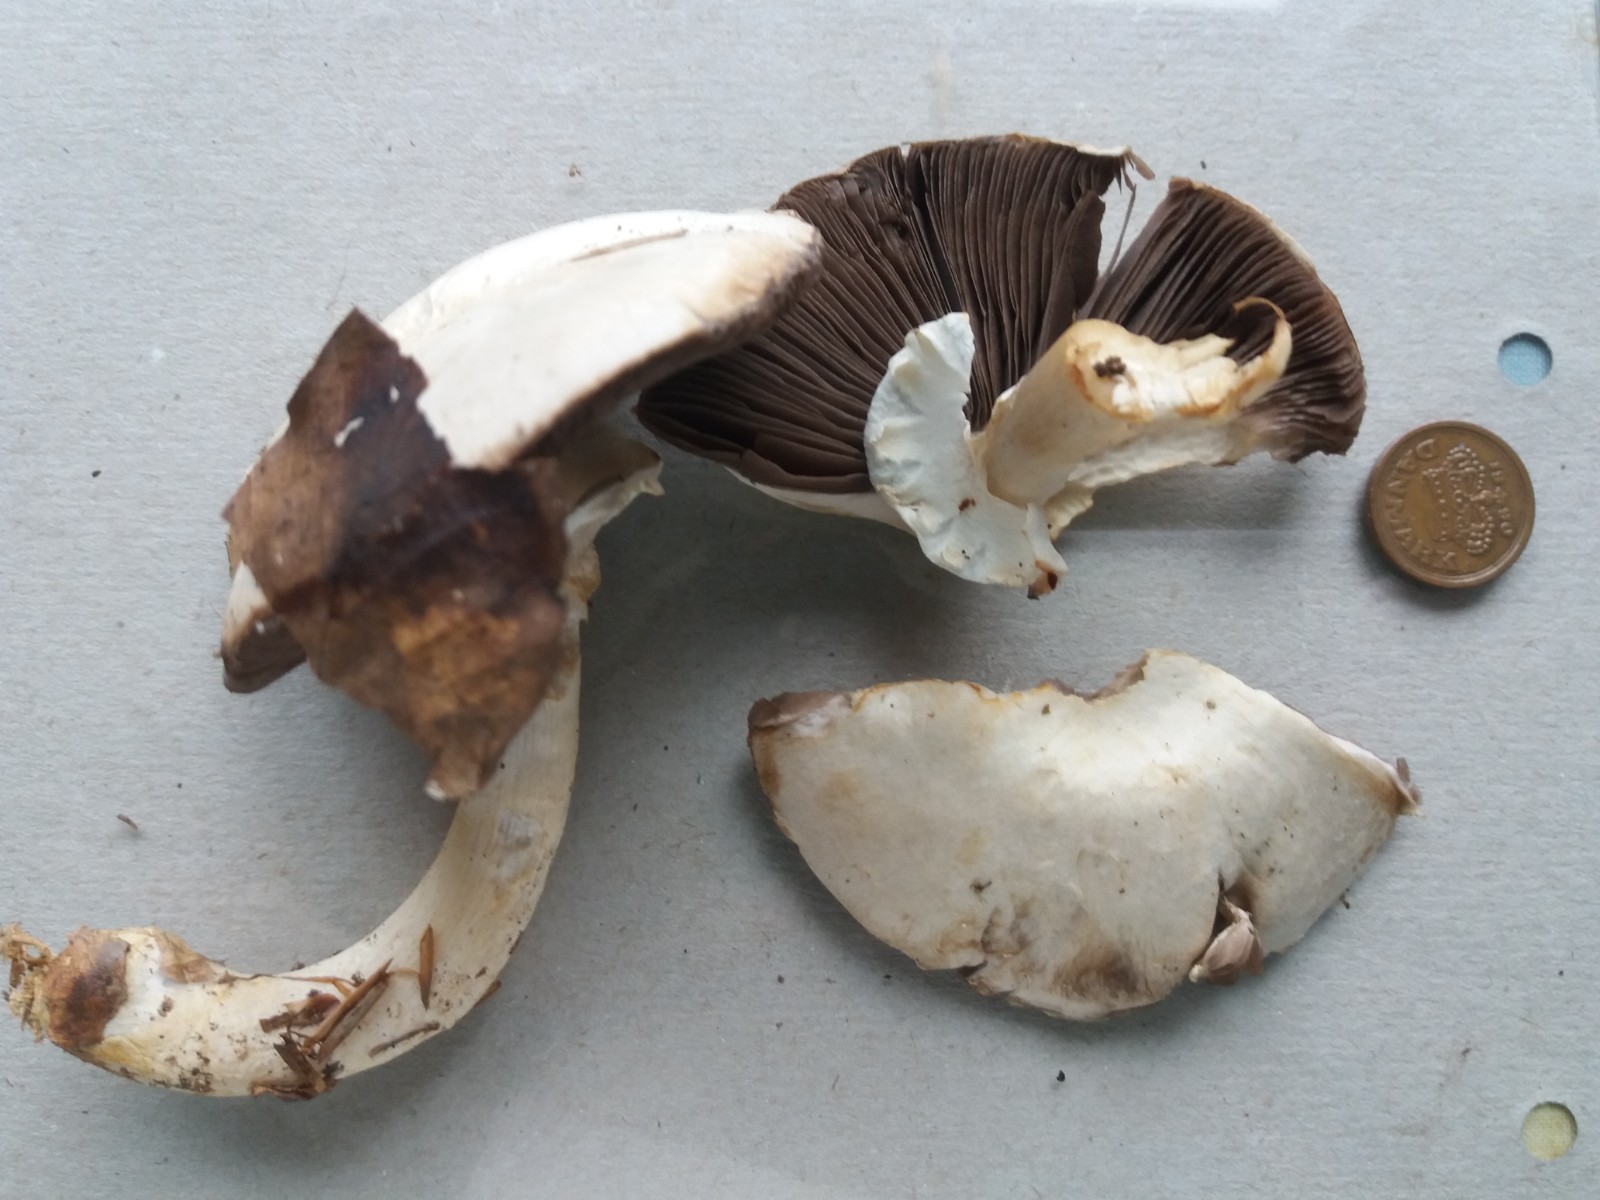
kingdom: Fungi
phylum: Basidiomycota
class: Agaricomycetes
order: Agaricales
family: Agaricaceae
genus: Agaricus
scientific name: Agaricus sylvicola
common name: gulhvid champignon
